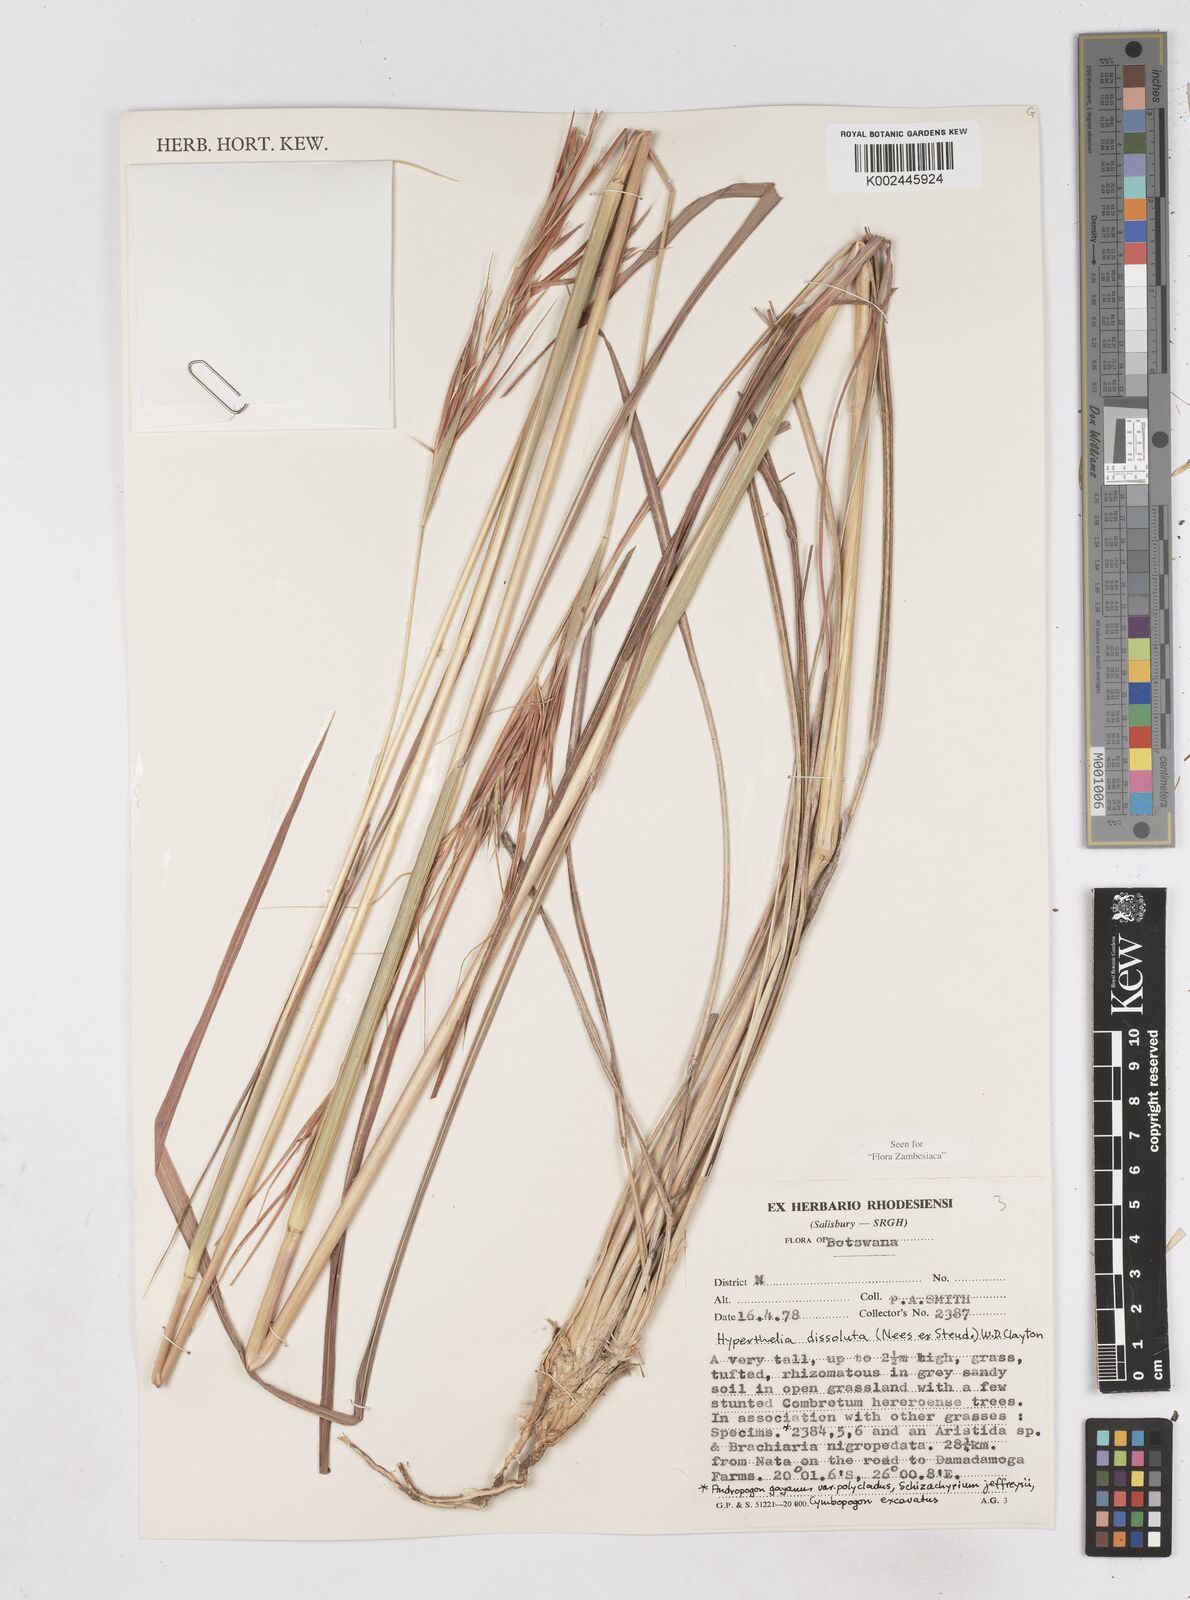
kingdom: Plantae
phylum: Tracheophyta
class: Liliopsida
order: Poales
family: Poaceae
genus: Hyperthelia
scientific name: Hyperthelia dissoluta
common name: Yellow thatching grass
